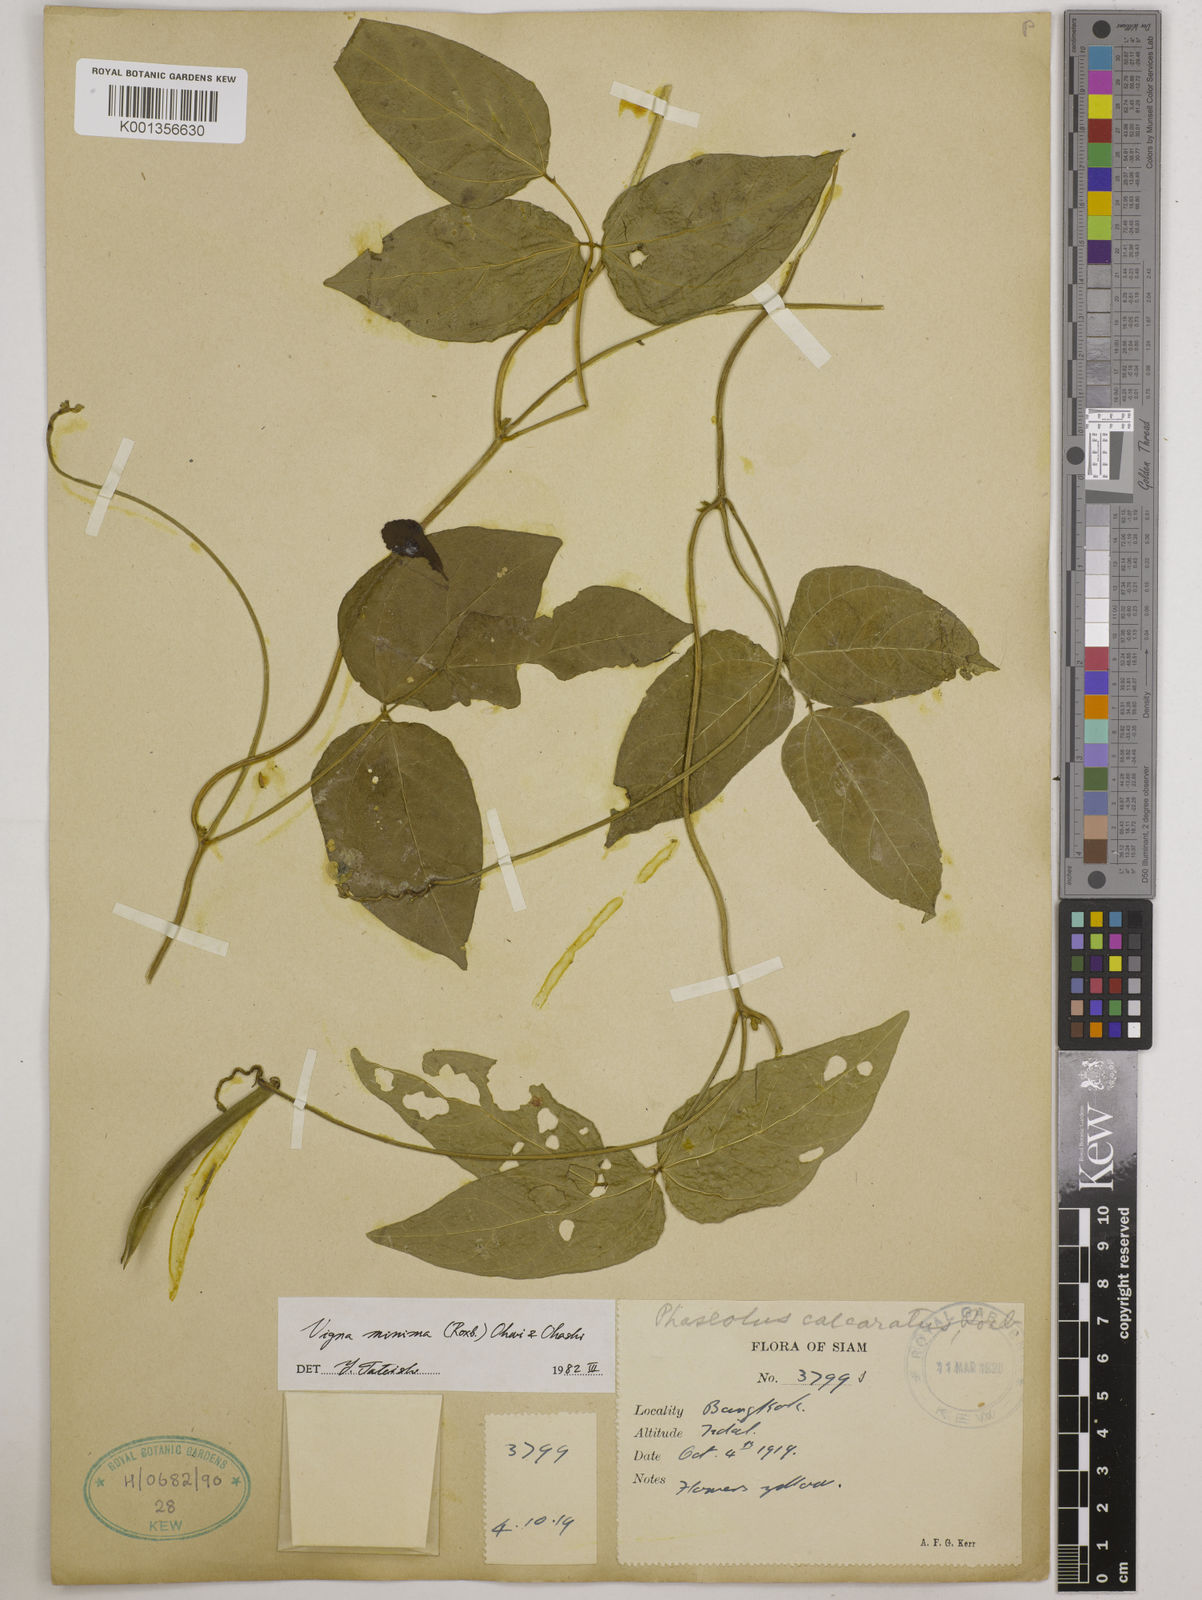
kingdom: Plantae
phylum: Tracheophyta
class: Magnoliopsida
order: Fabales
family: Fabaceae
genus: Vigna
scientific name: Vigna minima
